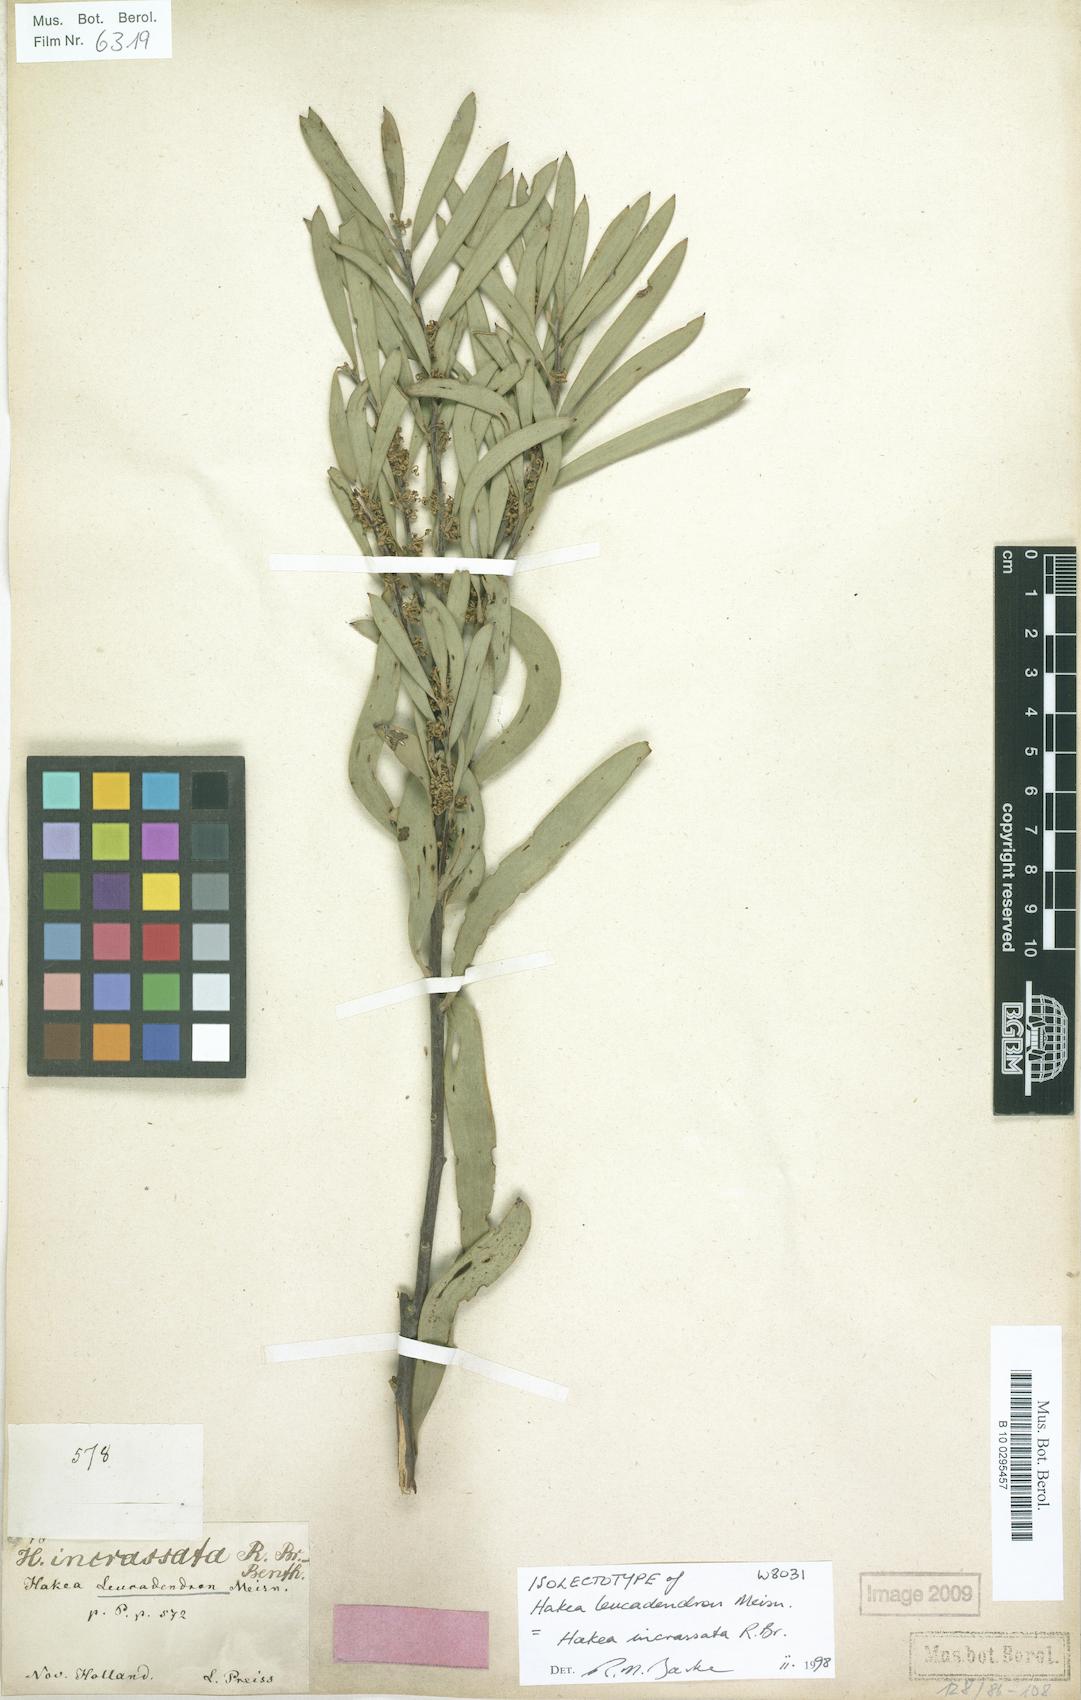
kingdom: Plantae
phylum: Tracheophyta
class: Magnoliopsida
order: Proteales
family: Proteaceae
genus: Hakea
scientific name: Hakea incrassata
